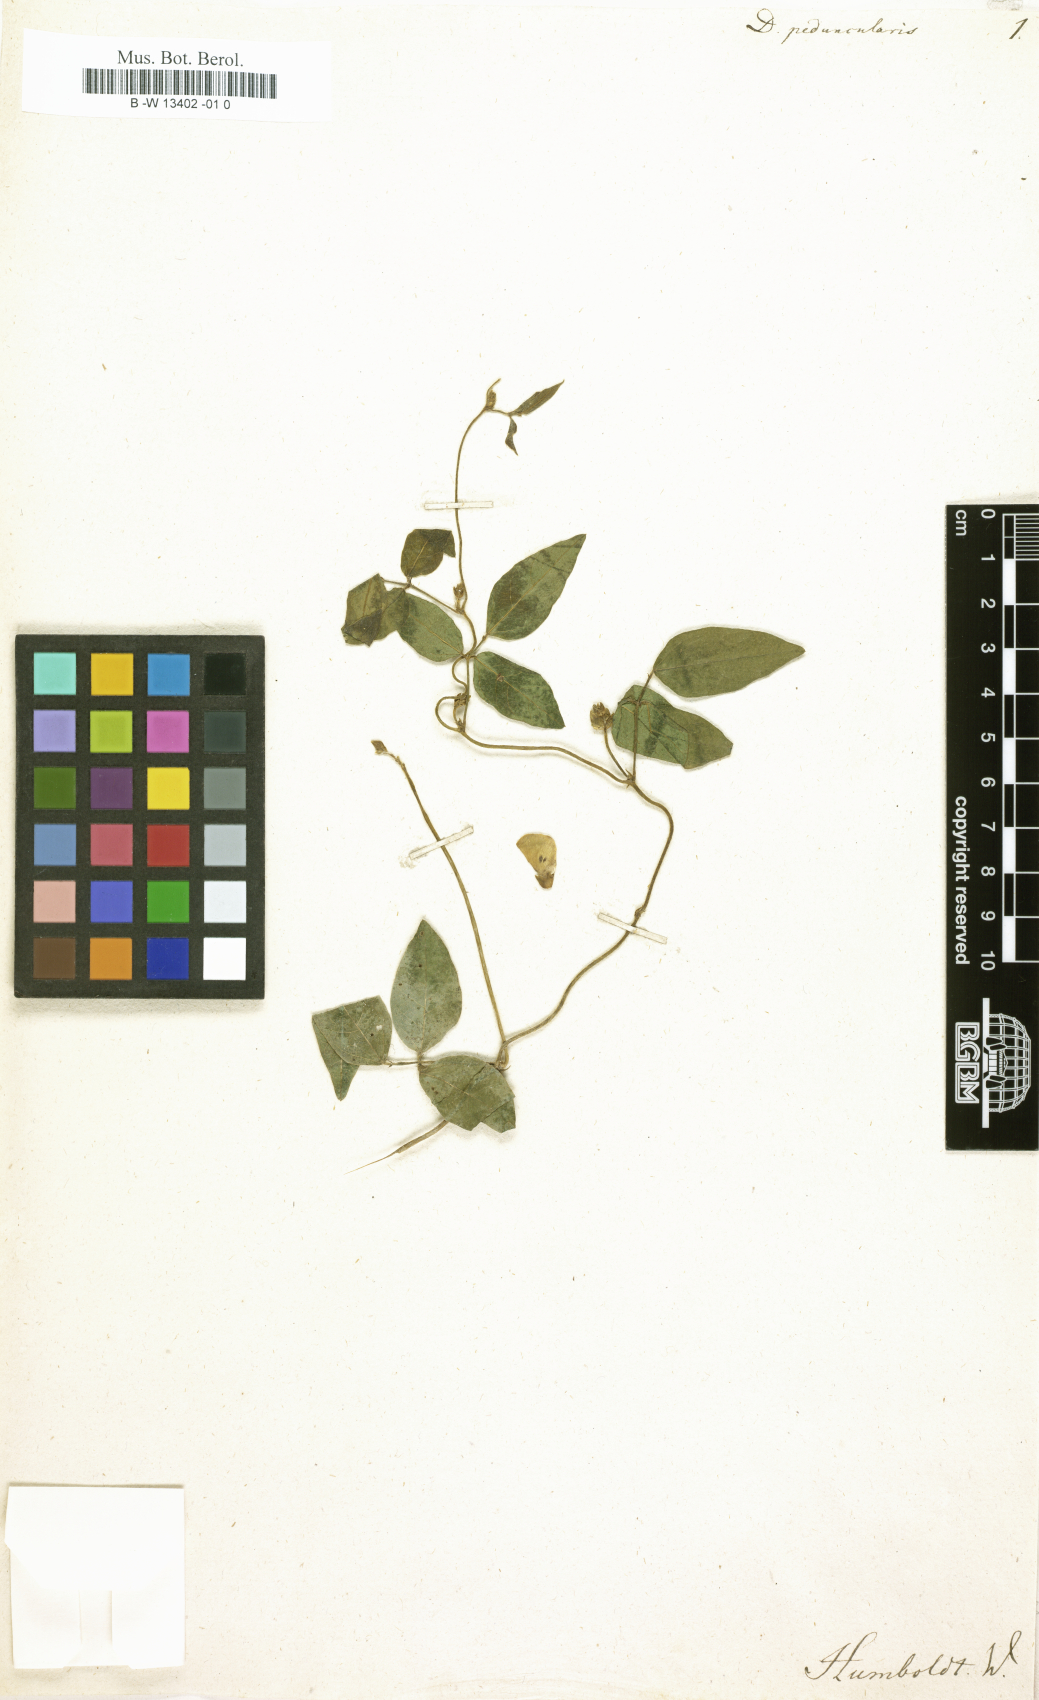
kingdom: Plantae
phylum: Tracheophyta
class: Magnoliopsida
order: Fabales
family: Fabaceae
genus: Dolichos
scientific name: Dolichos
